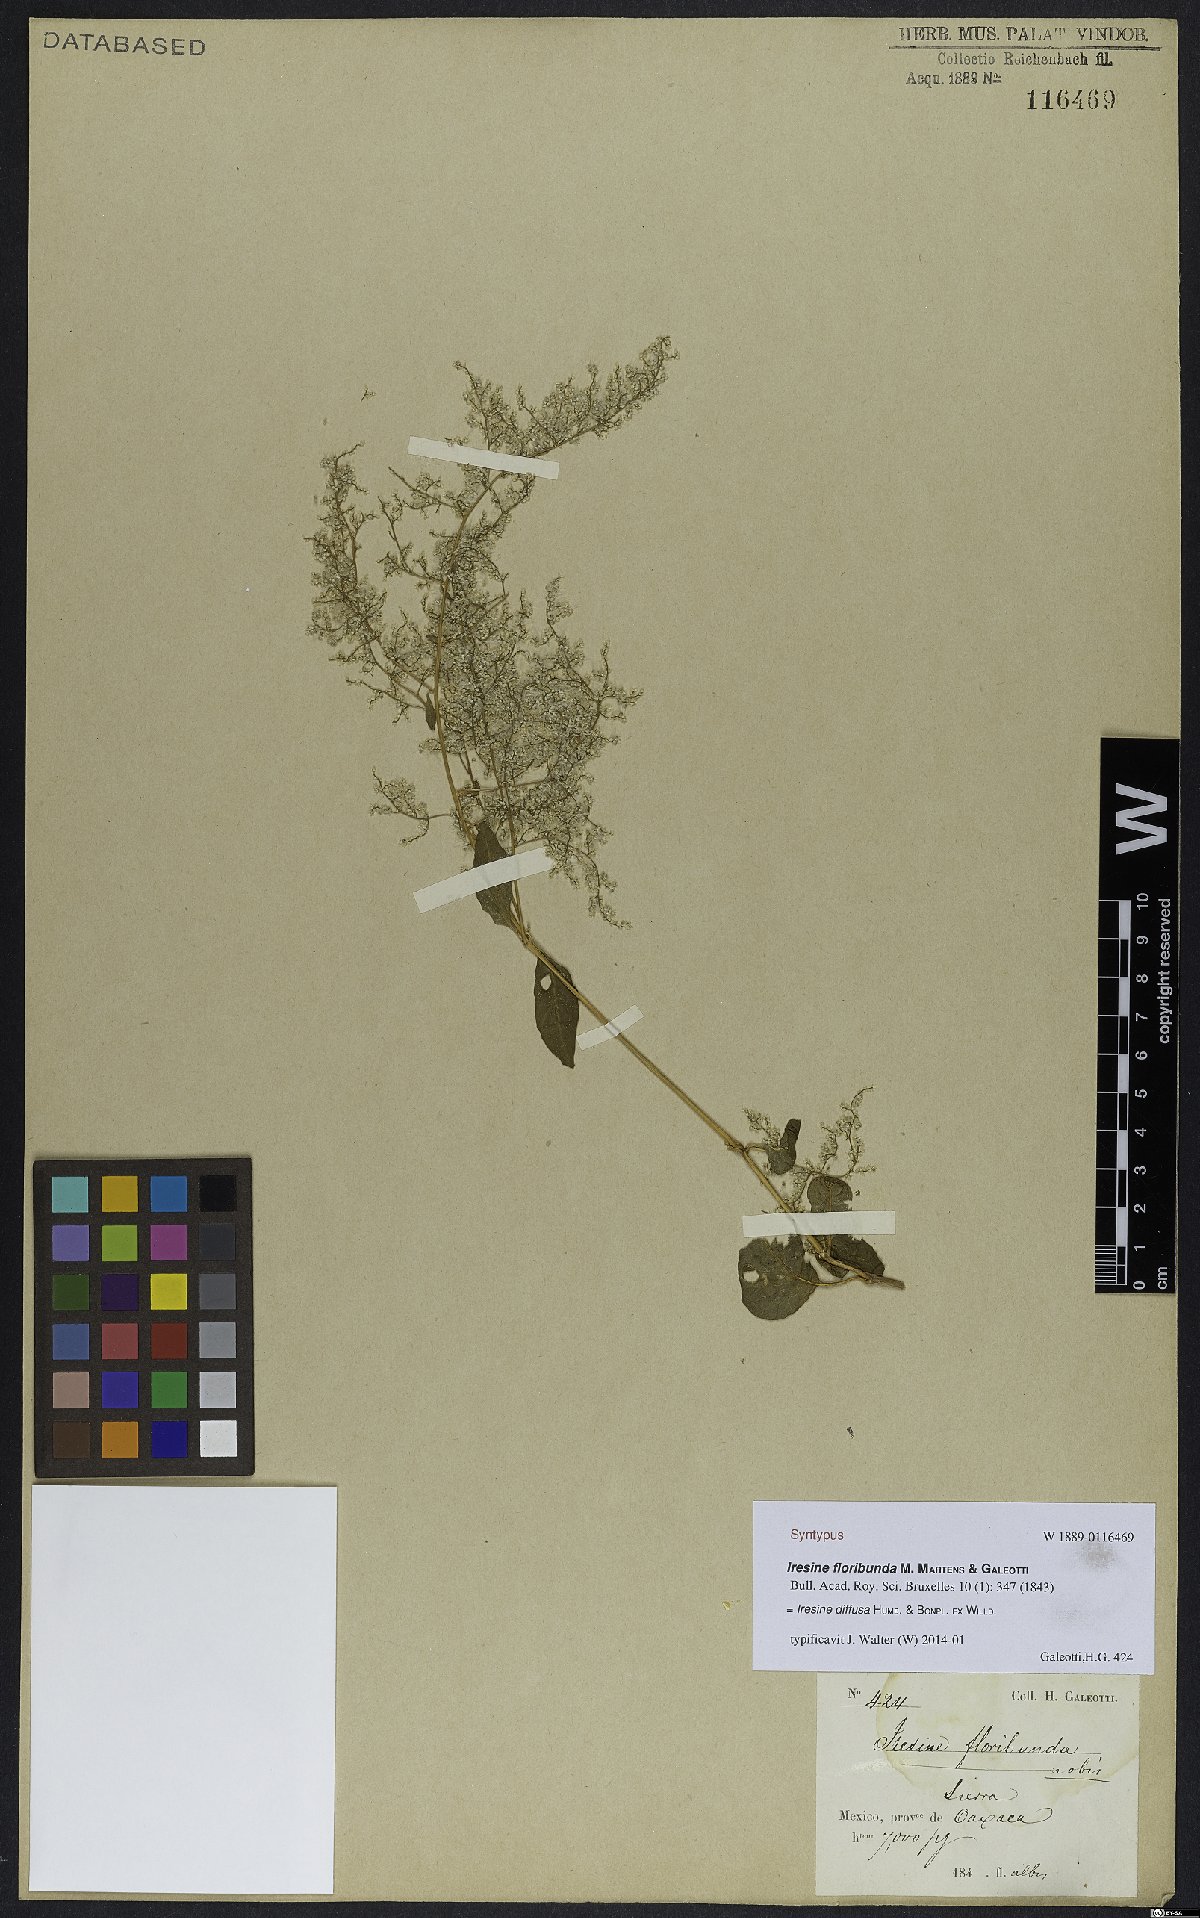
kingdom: Plantae
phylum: Tracheophyta
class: Magnoliopsida
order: Caryophyllales
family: Amaranthaceae
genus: Iresine
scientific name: Iresine diffusa
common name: Juba's-bush
